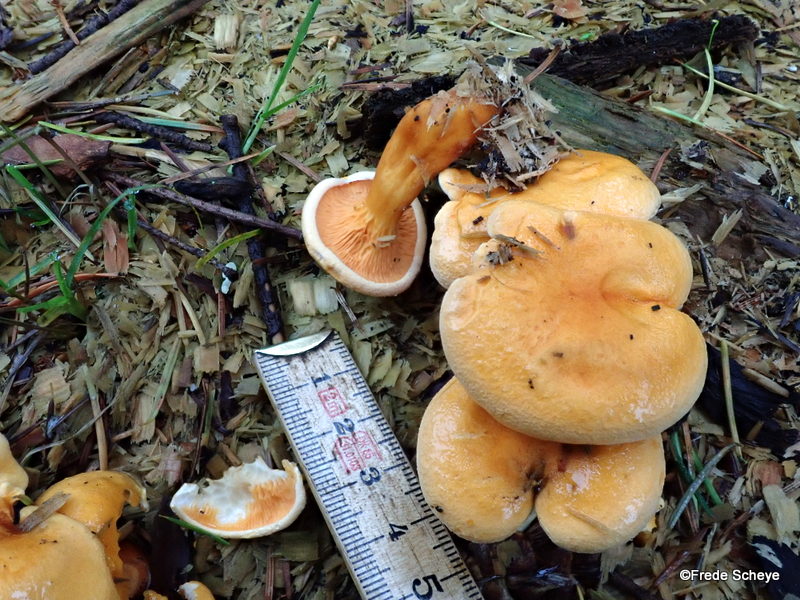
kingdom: Fungi
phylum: Basidiomycota
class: Agaricomycetes
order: Boletales
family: Hygrophoropsidaceae
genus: Hygrophoropsis
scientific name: Hygrophoropsis aurantiaca
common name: almindelig orangekantarel
